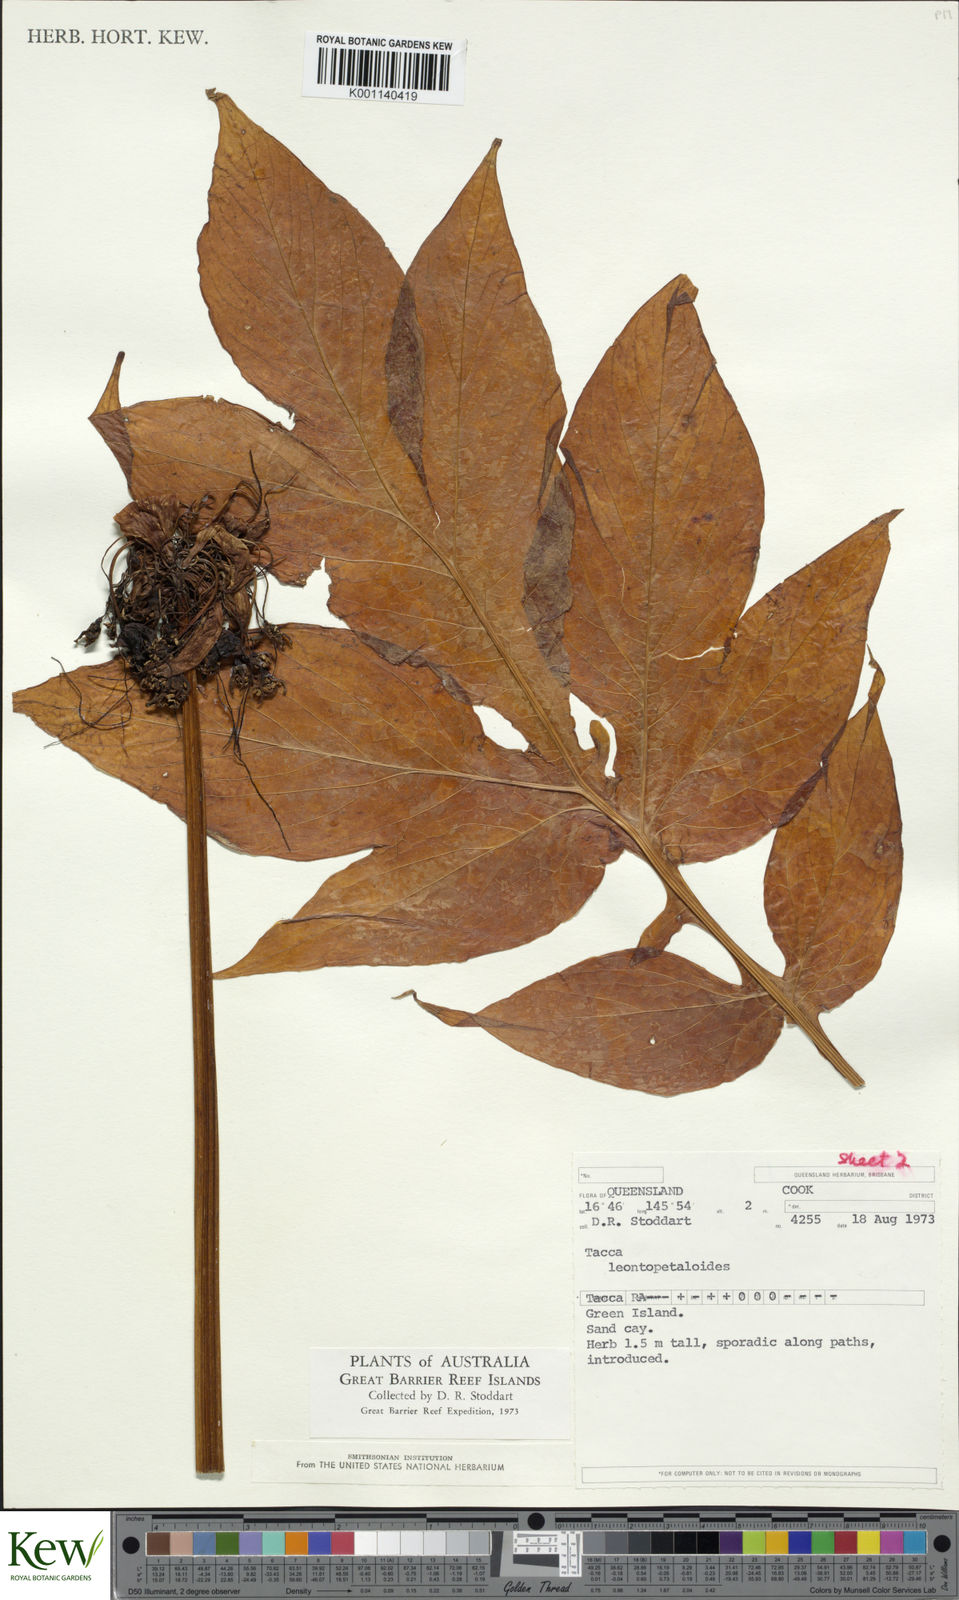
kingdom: Plantae
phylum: Tracheophyta
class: Liliopsida
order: Dioscoreales
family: Dioscoreaceae
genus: Tacca
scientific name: Tacca leontopetaloides
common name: Arrowroot
